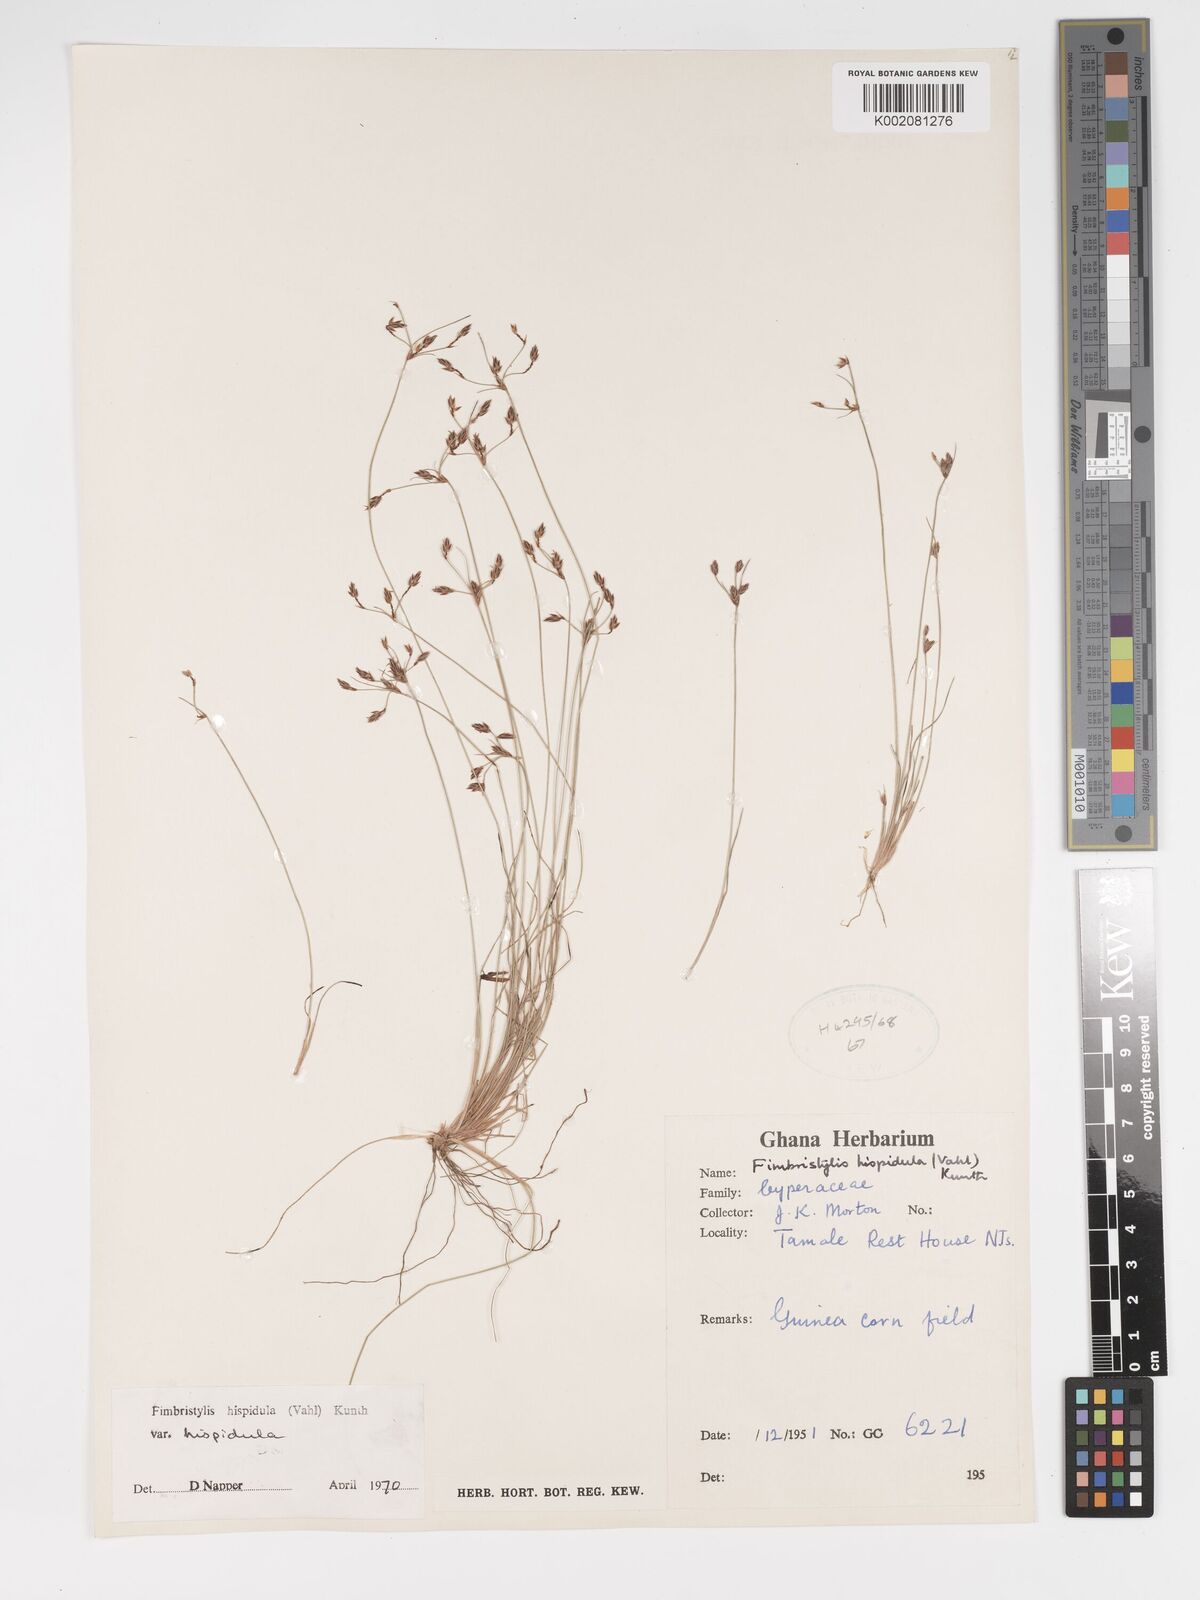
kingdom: Plantae
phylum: Tracheophyta
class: Liliopsida
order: Poales
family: Cyperaceae
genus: Bulbostylis
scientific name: Bulbostylis hispidula
